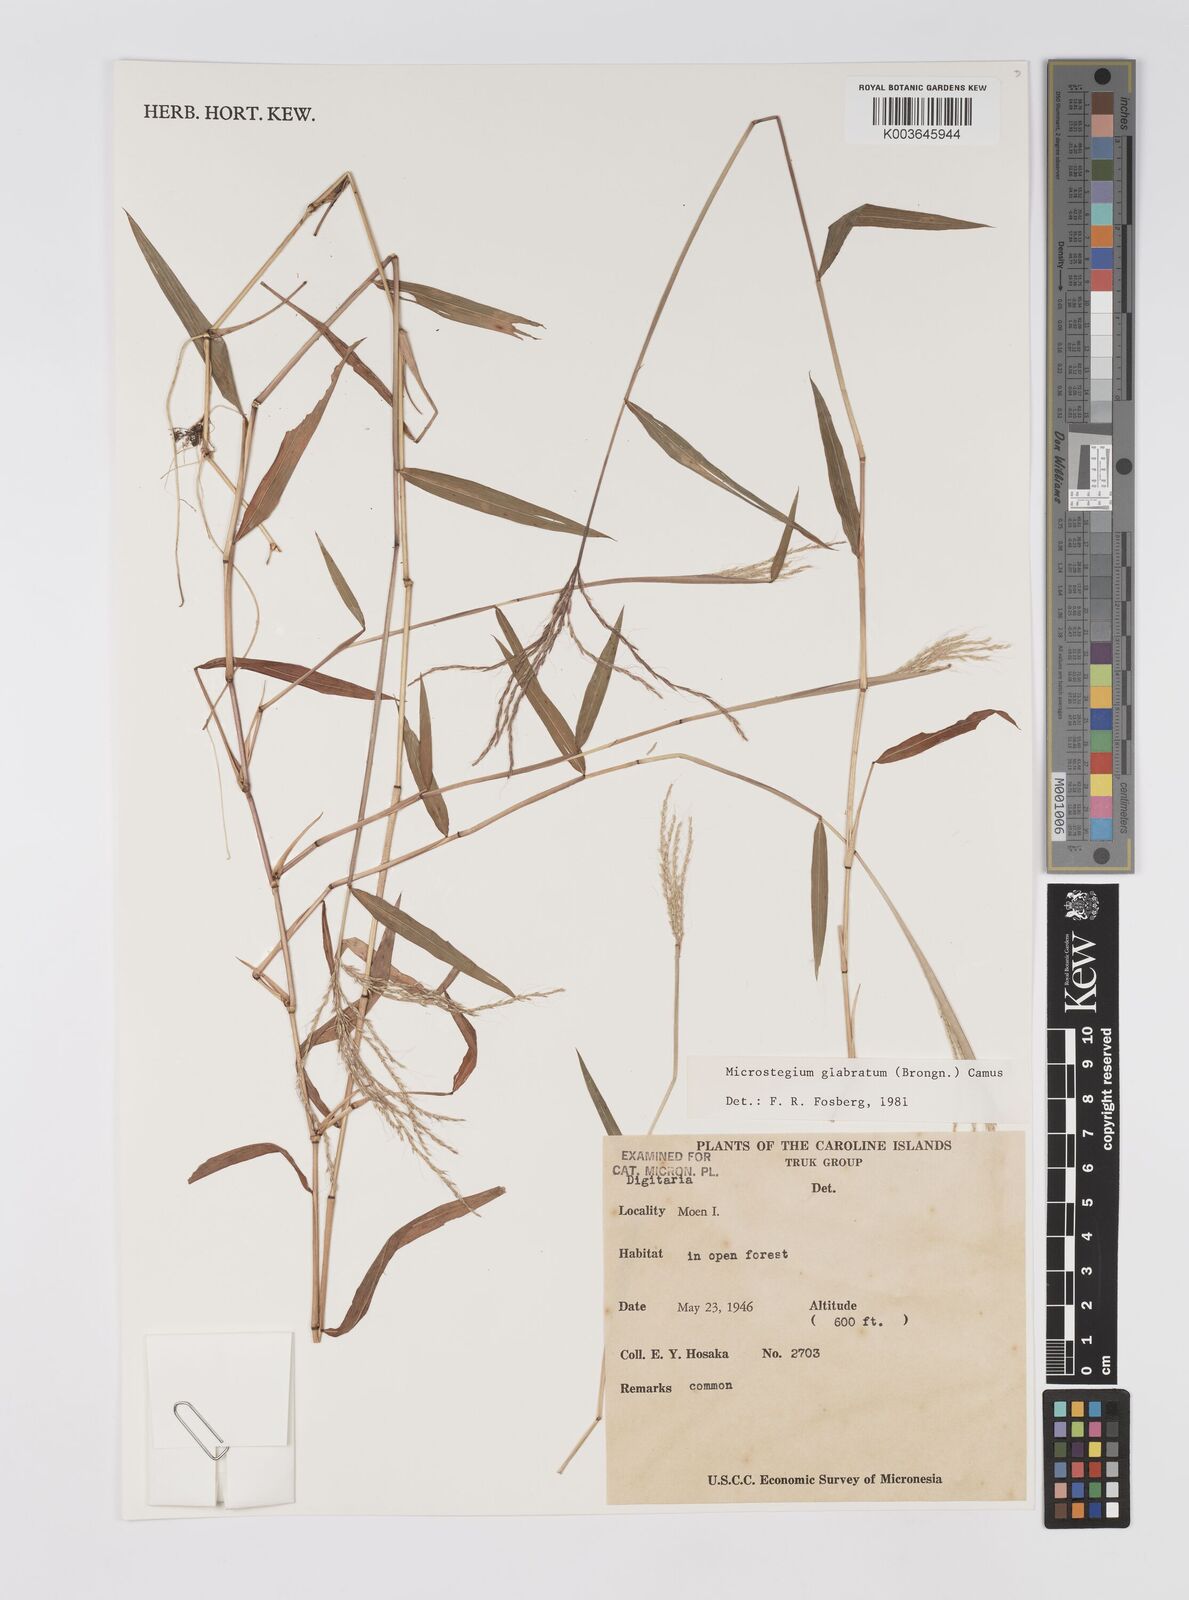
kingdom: Plantae
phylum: Tracheophyta
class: Liliopsida
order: Poales
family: Poaceae
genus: Microstegium
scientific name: Microstegium glabratum
